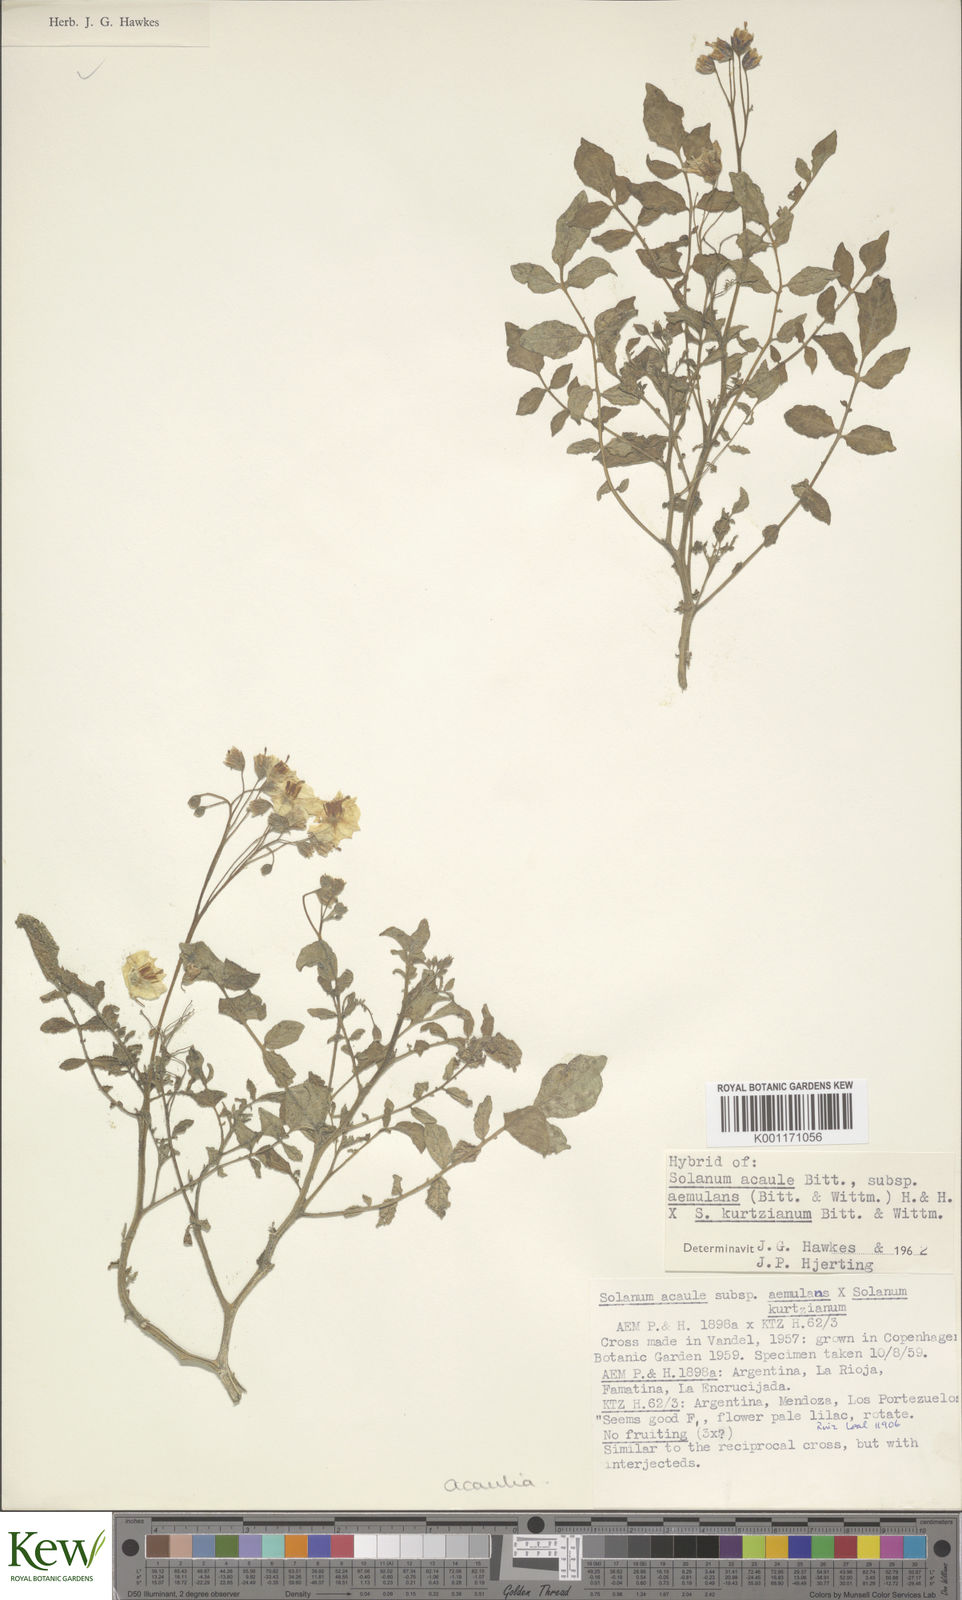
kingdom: Plantae
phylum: Tracheophyta
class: Magnoliopsida
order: Solanales
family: Solanaceae
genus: Solanum
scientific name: Solanum aemulans
